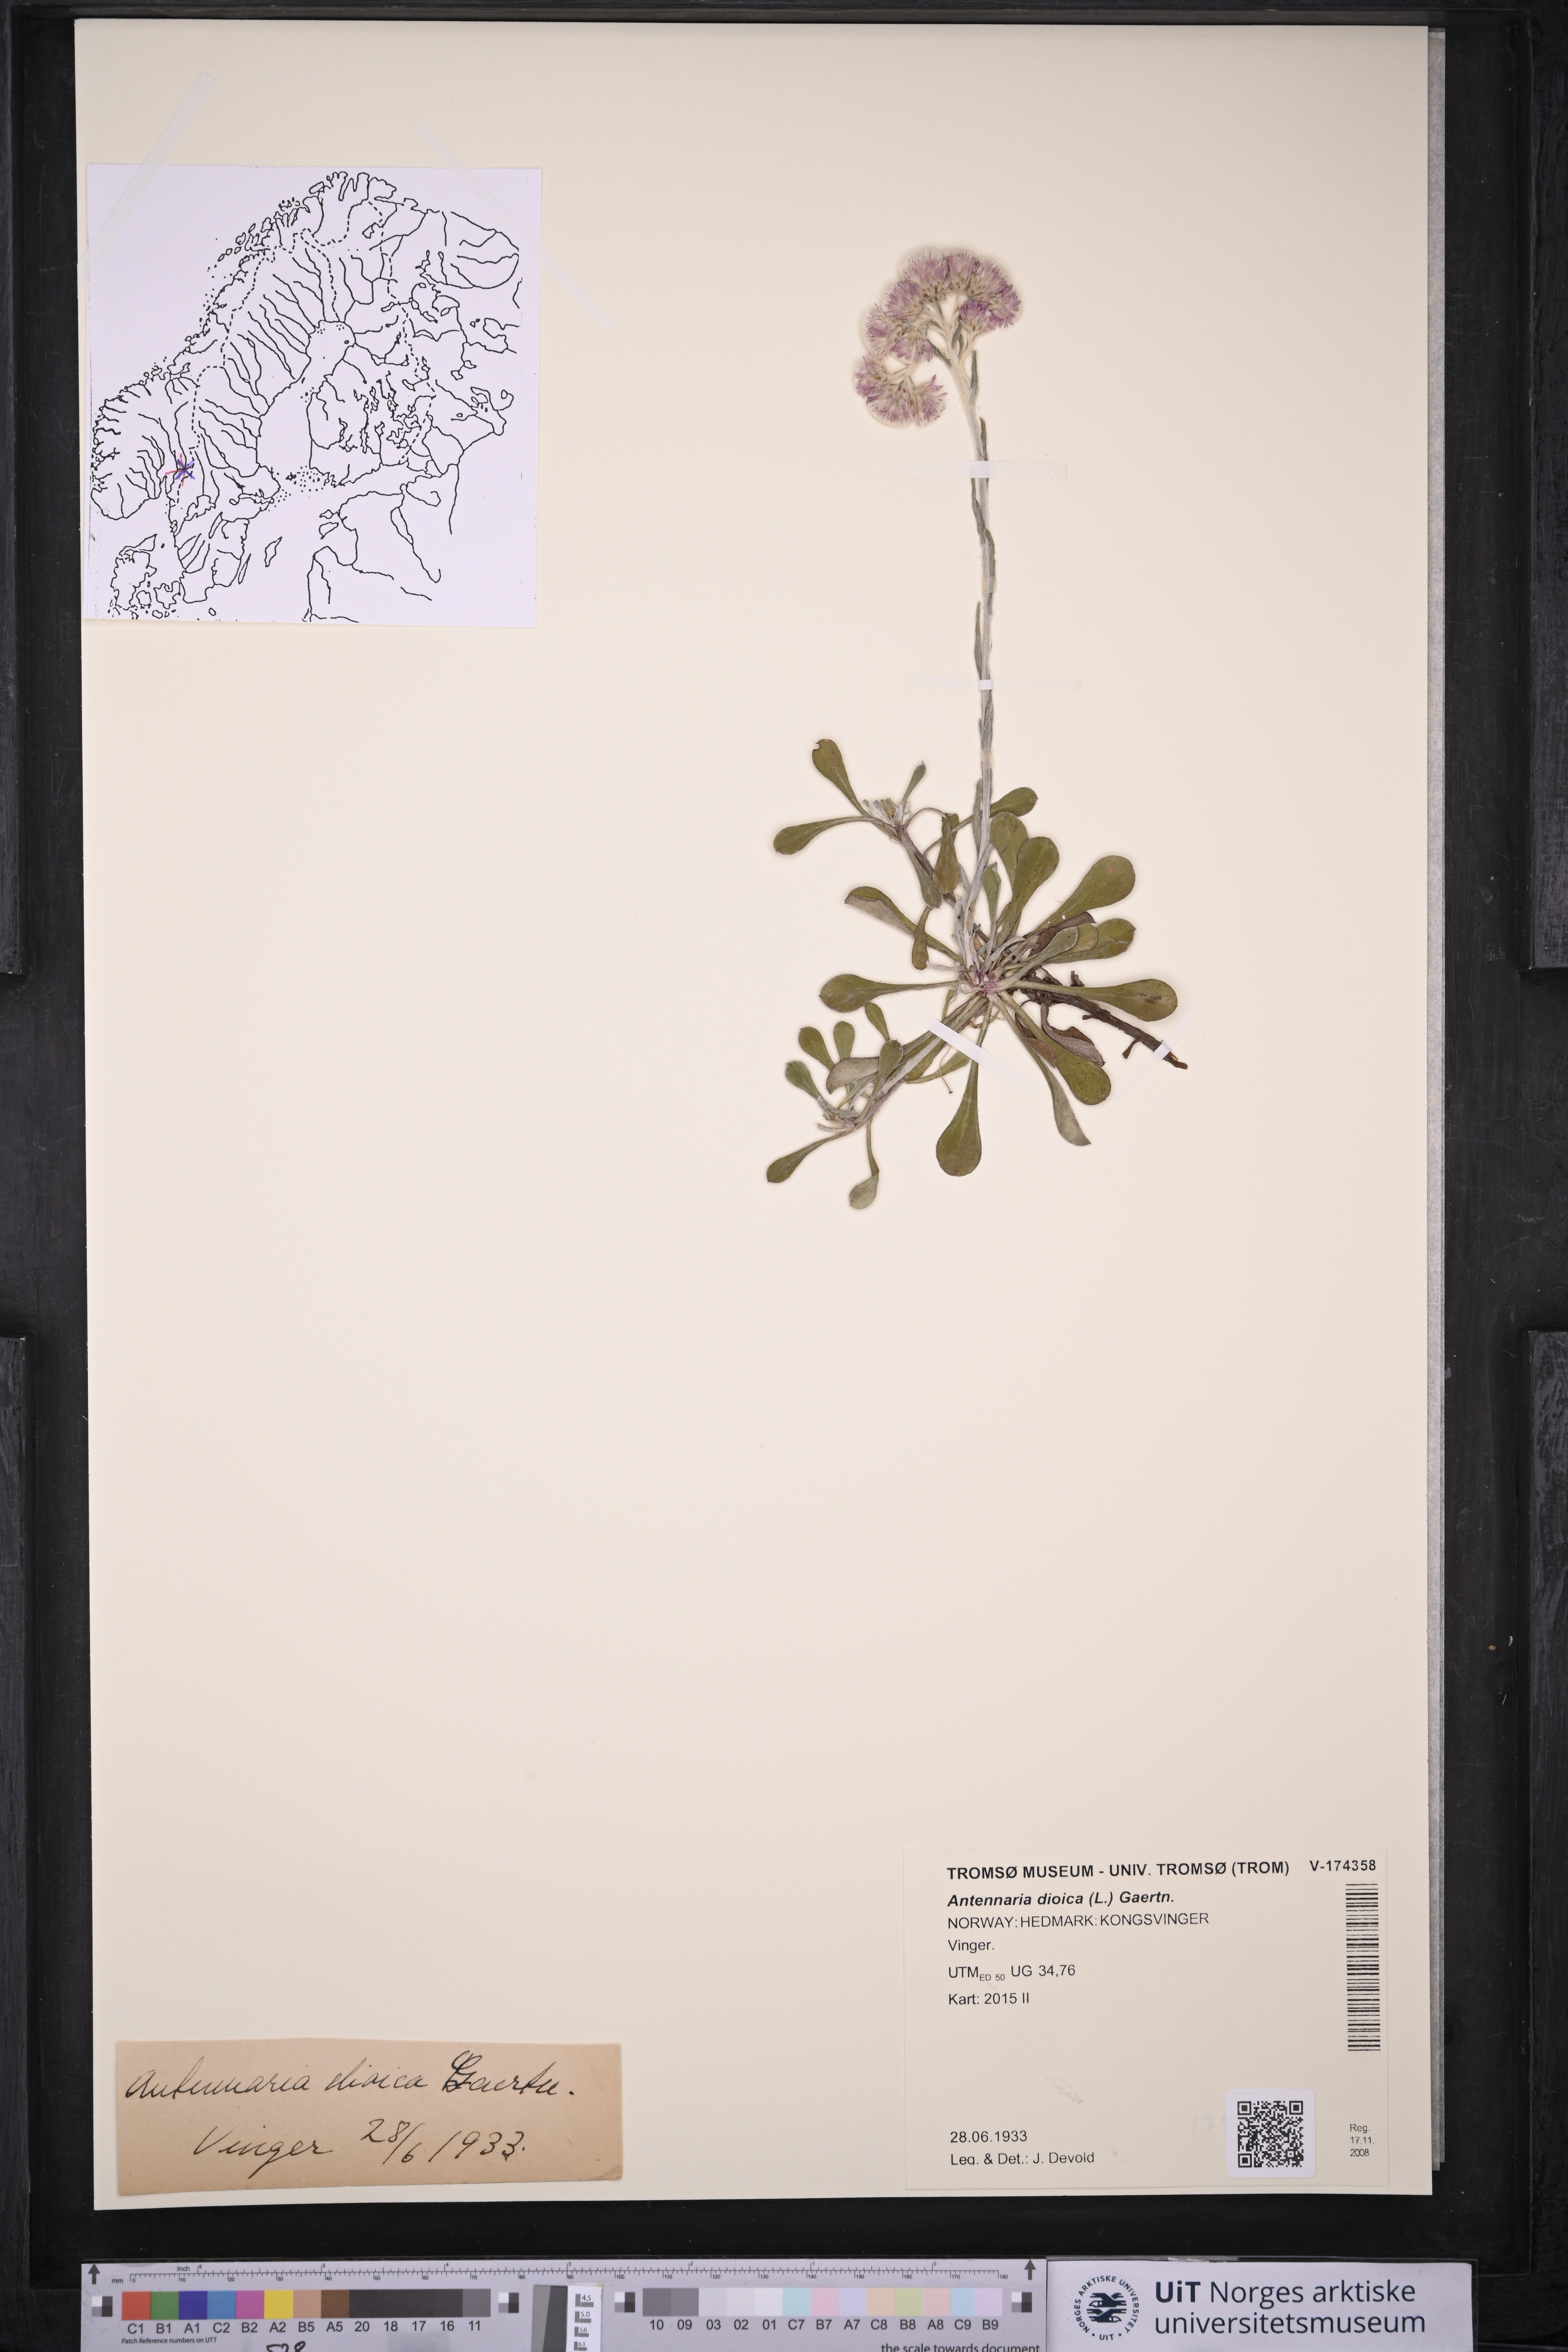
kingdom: Plantae
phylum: Tracheophyta
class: Magnoliopsida
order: Asterales
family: Asteraceae
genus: Antennaria
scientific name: Antennaria dioica
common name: Mountain everlasting
